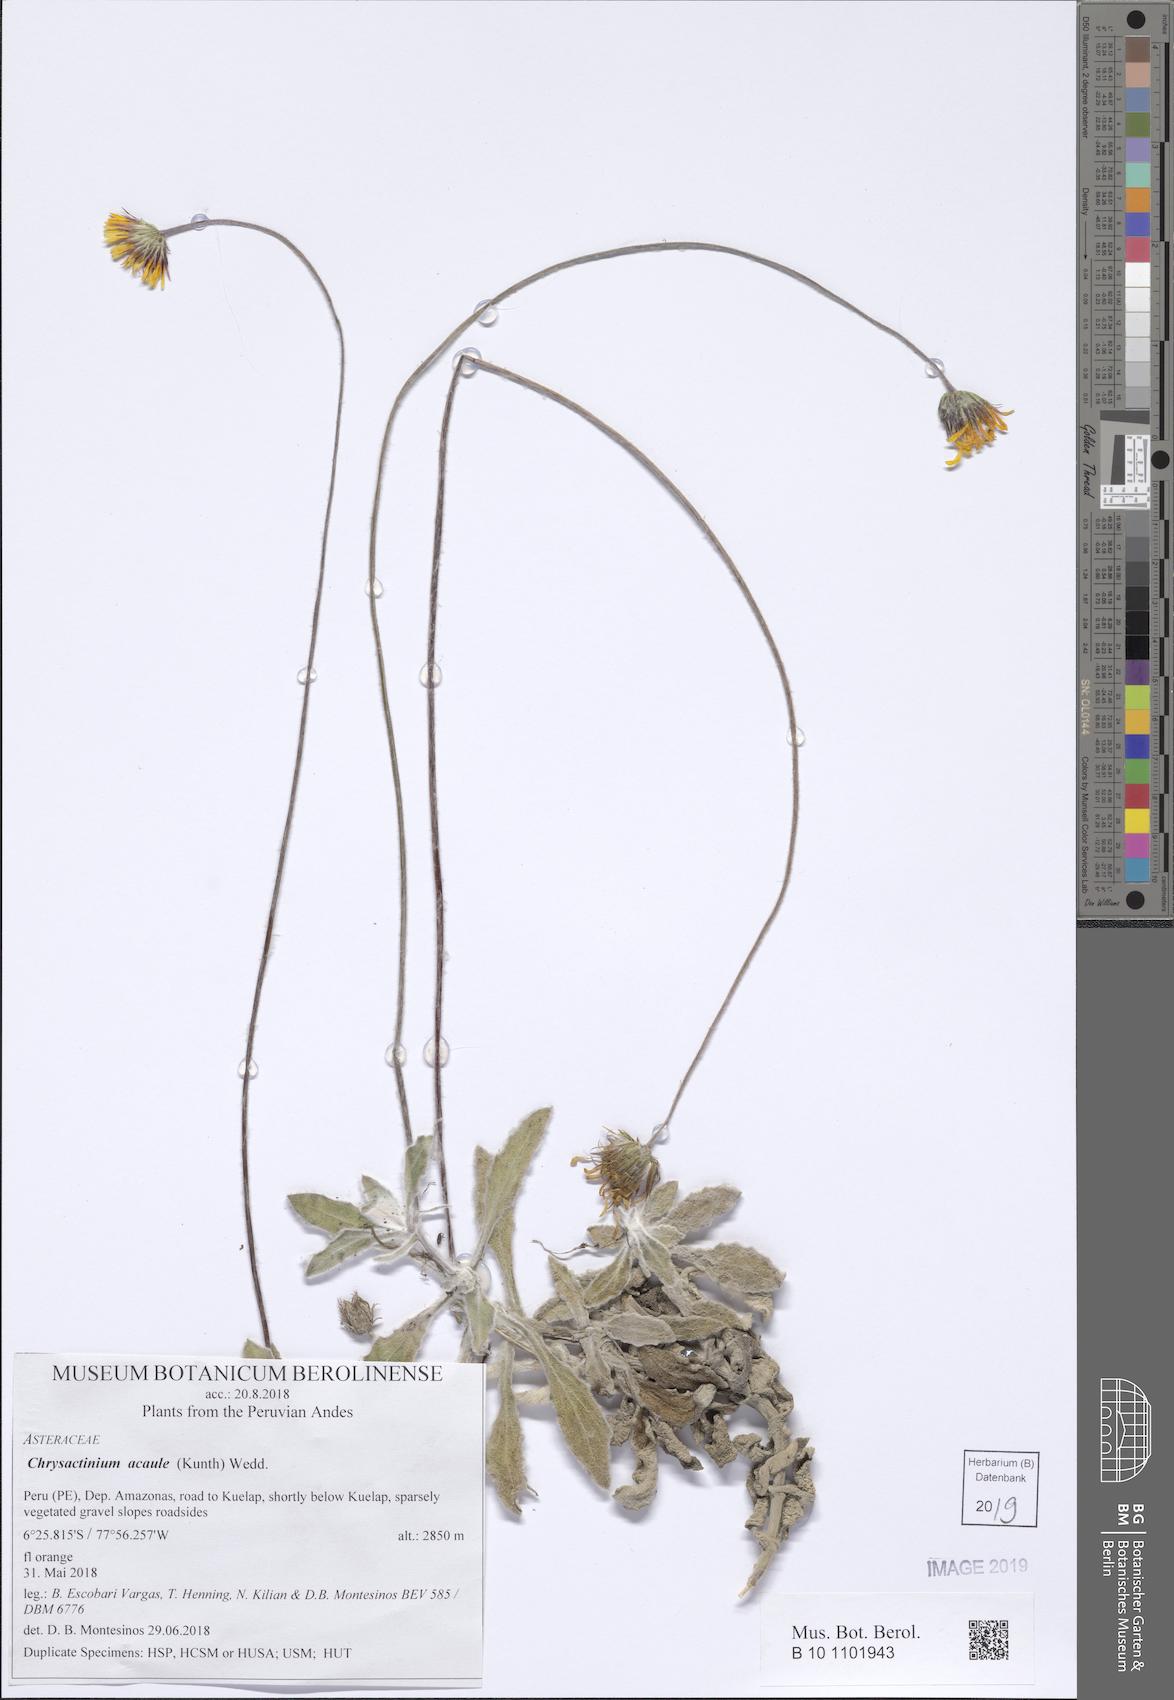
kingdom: Plantae
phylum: Tracheophyta
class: Magnoliopsida
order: Asterales
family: Asteraceae
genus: Chrysactinium
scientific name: Chrysactinium acaule
